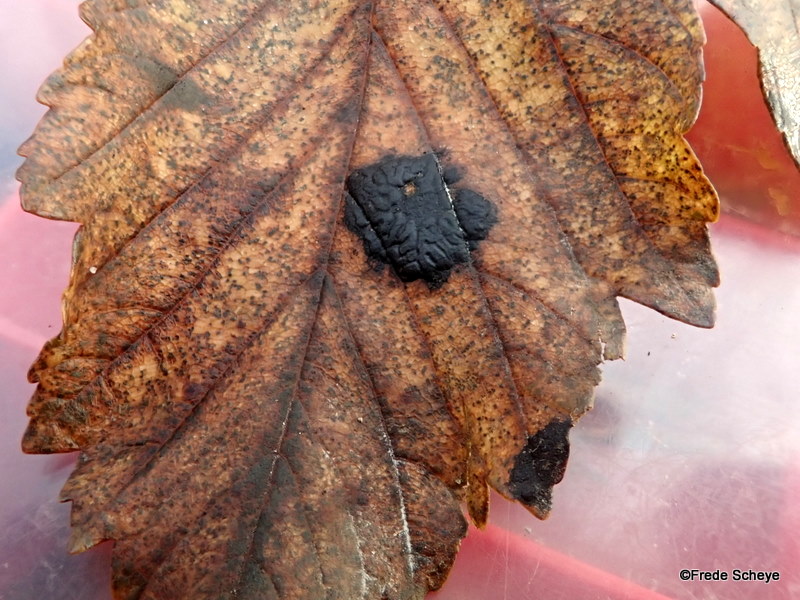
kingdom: Fungi
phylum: Ascomycota
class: Leotiomycetes
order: Rhytismatales
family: Rhytismataceae
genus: Rhytisma
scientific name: Rhytisma acerinum
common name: ahorn-rynkeplet
